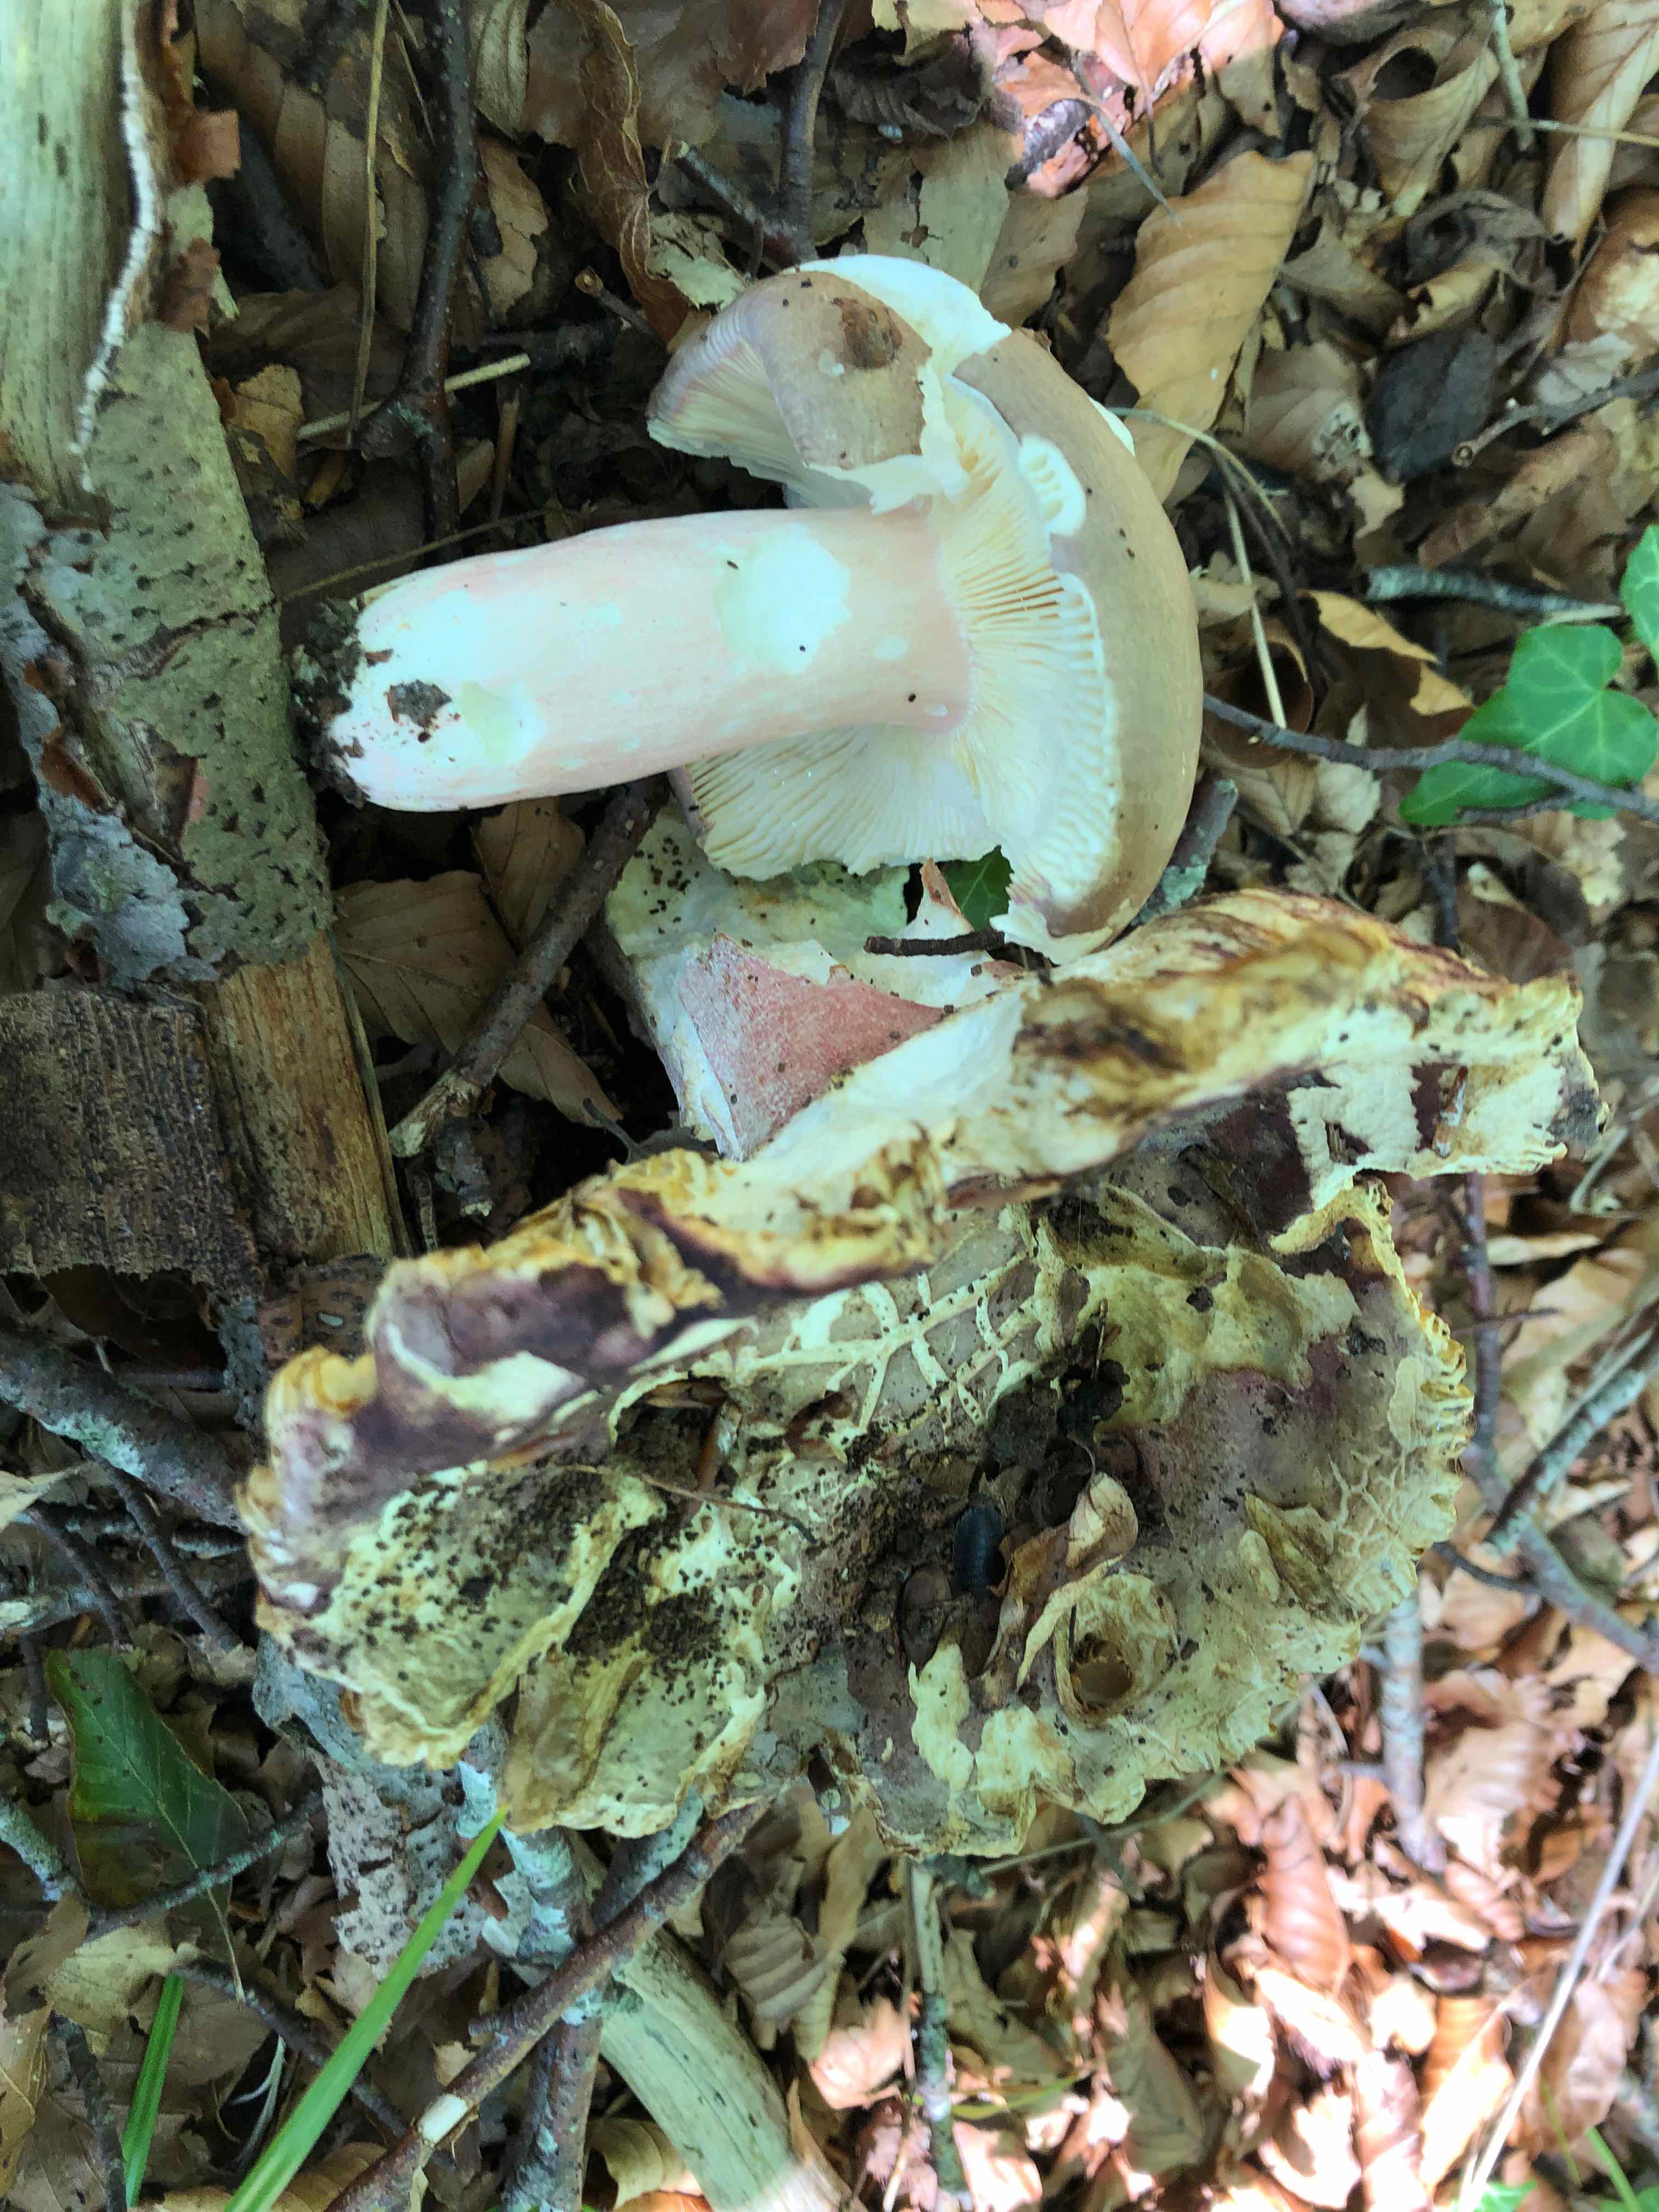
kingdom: Fungi
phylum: Basidiomycota
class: Agaricomycetes
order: Russulales
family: Russulaceae
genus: Russula
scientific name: Russula olivacea
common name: stor skørhat
